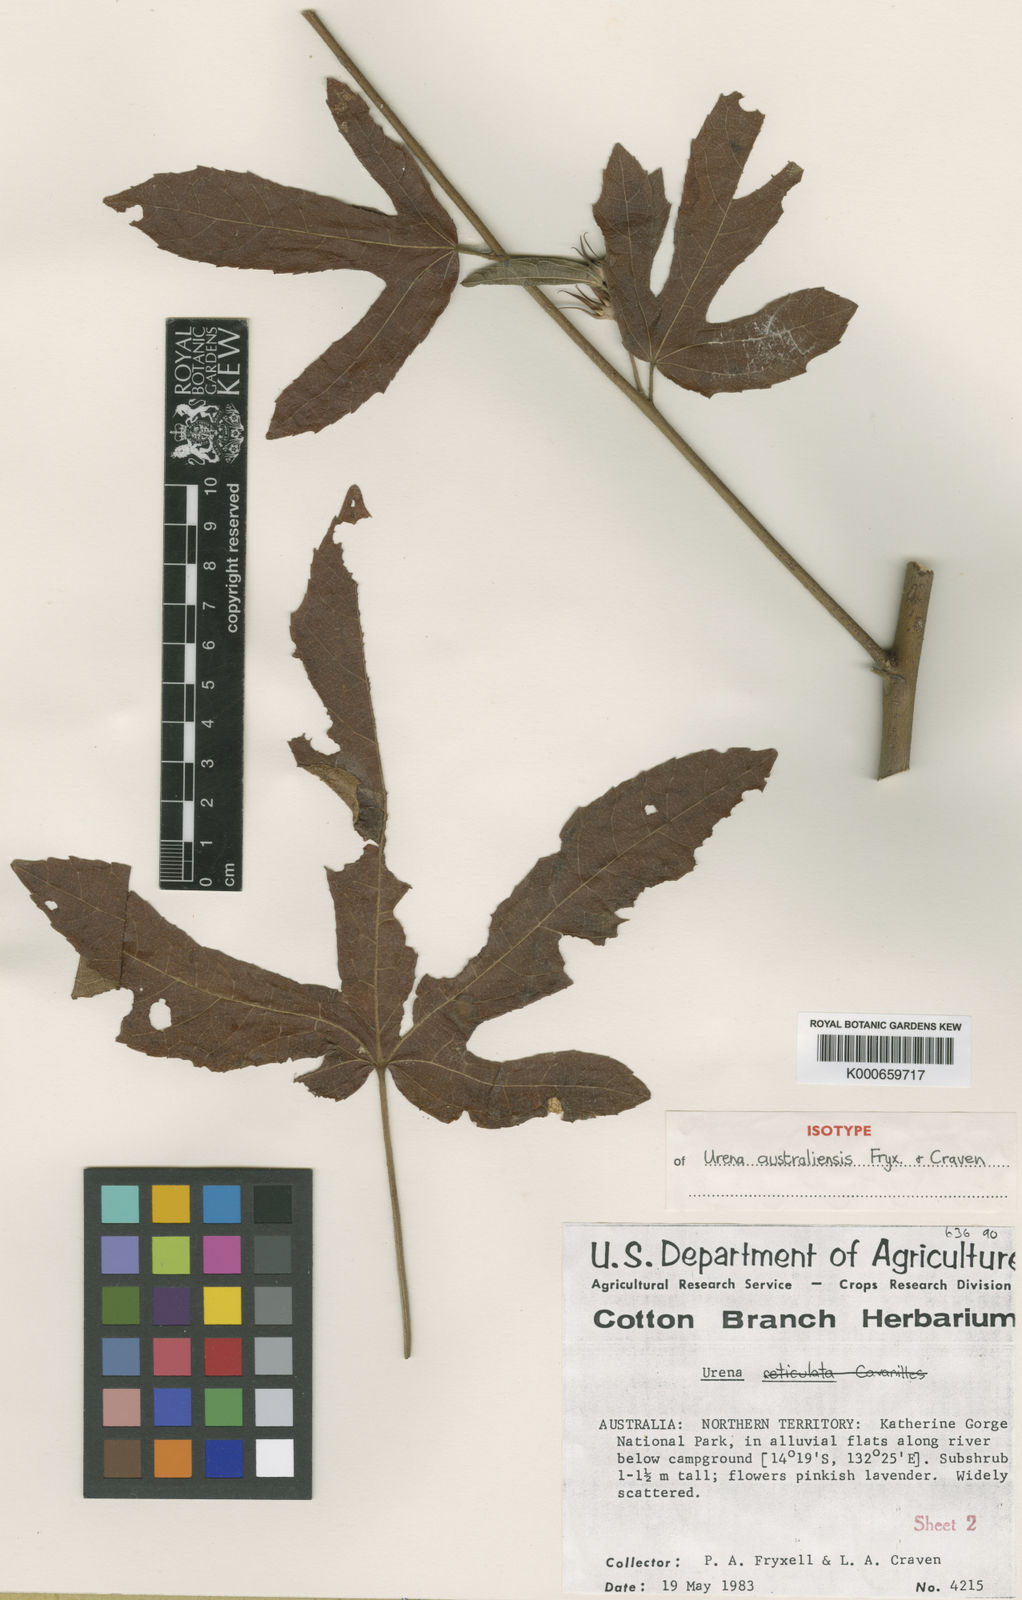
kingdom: Plantae
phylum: Tracheophyta
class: Magnoliopsida
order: Malvales
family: Malvaceae
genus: Urena
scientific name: Urena australiensis
